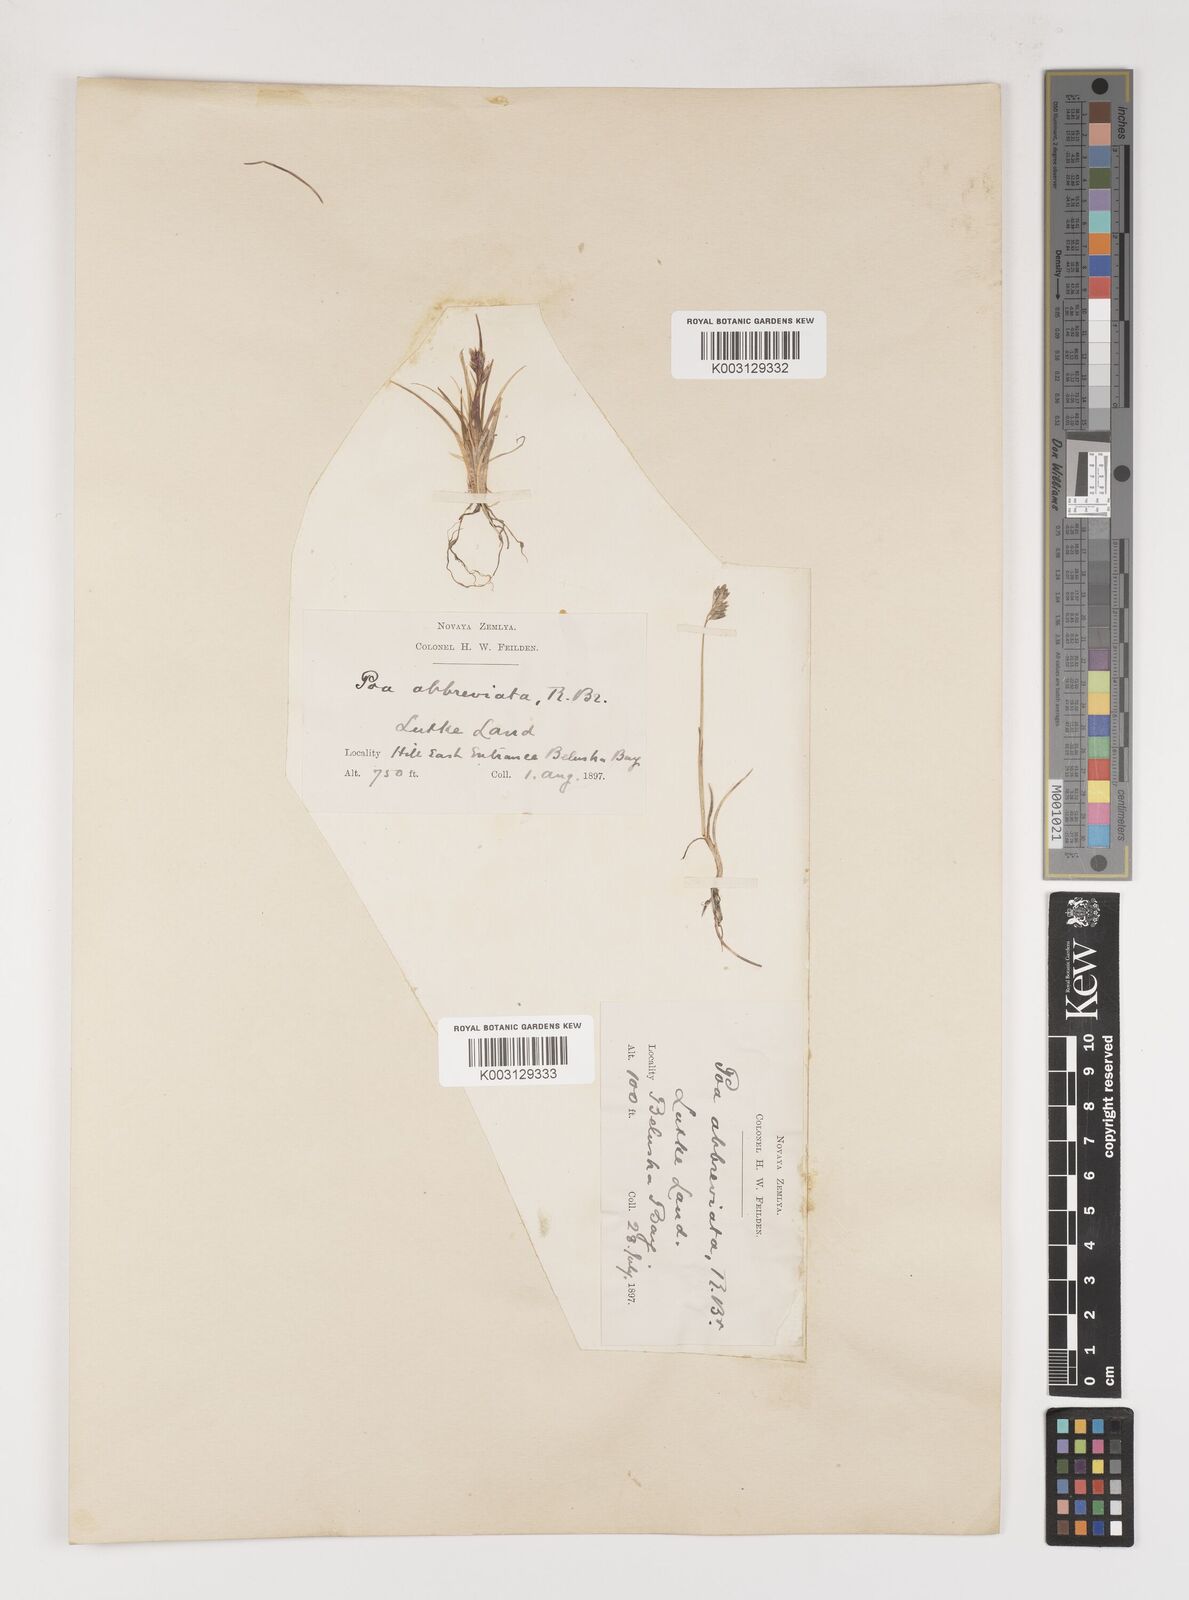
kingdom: Plantae
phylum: Tracheophyta
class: Liliopsida
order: Poales
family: Poaceae
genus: Poa
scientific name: Poa abbreviata
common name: Abbreviated bluegrass
